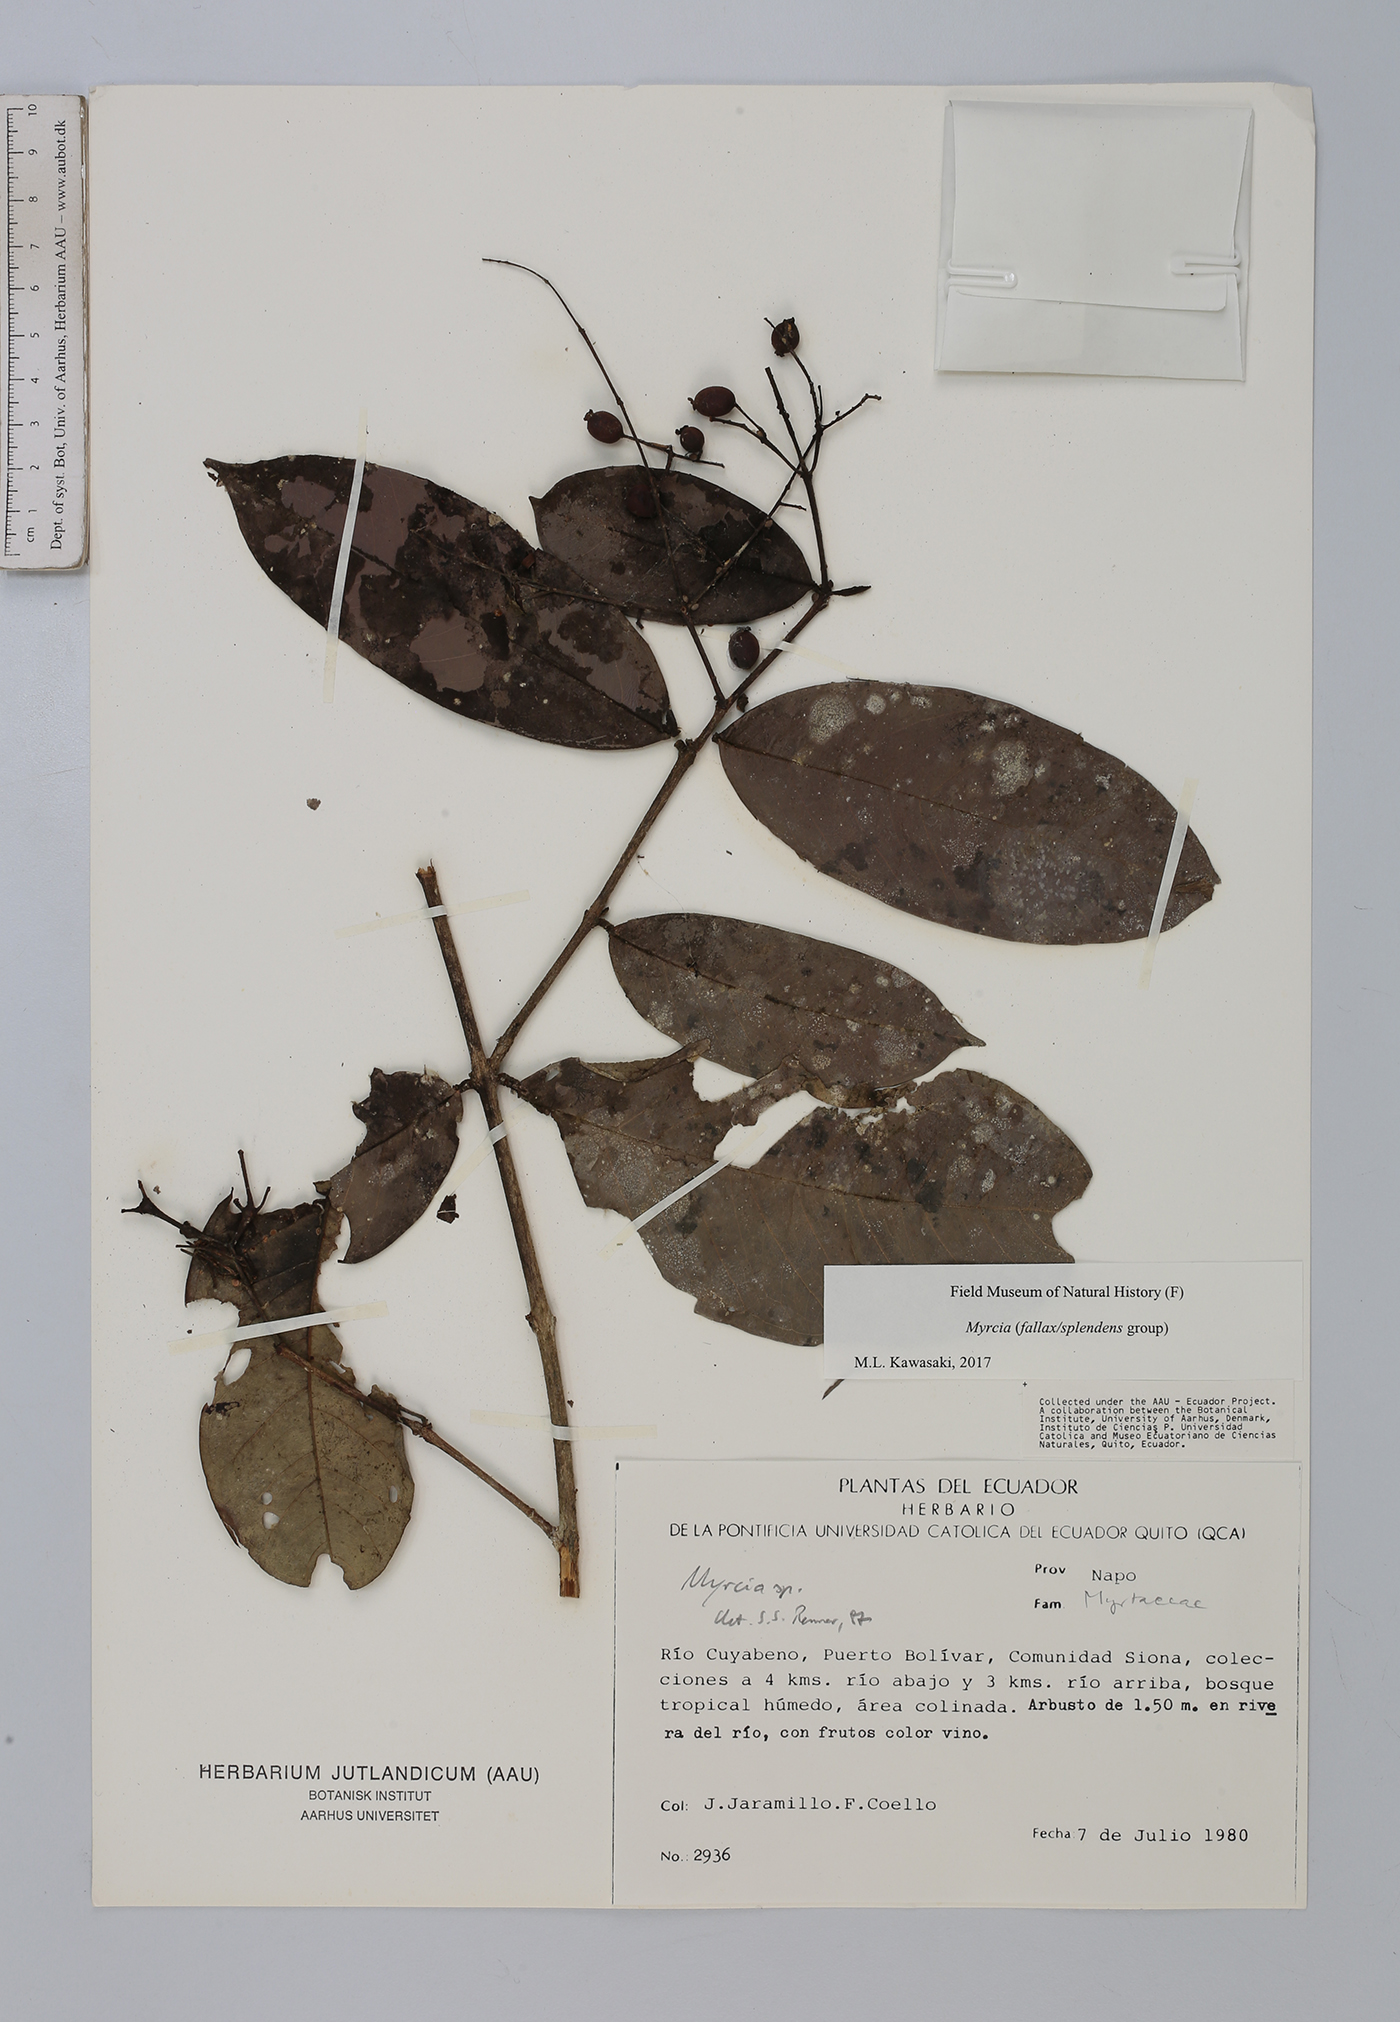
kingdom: Plantae
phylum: Tracheophyta
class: Magnoliopsida
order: Myrtales
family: Myrtaceae
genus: Myrcia
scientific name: Myrcia
